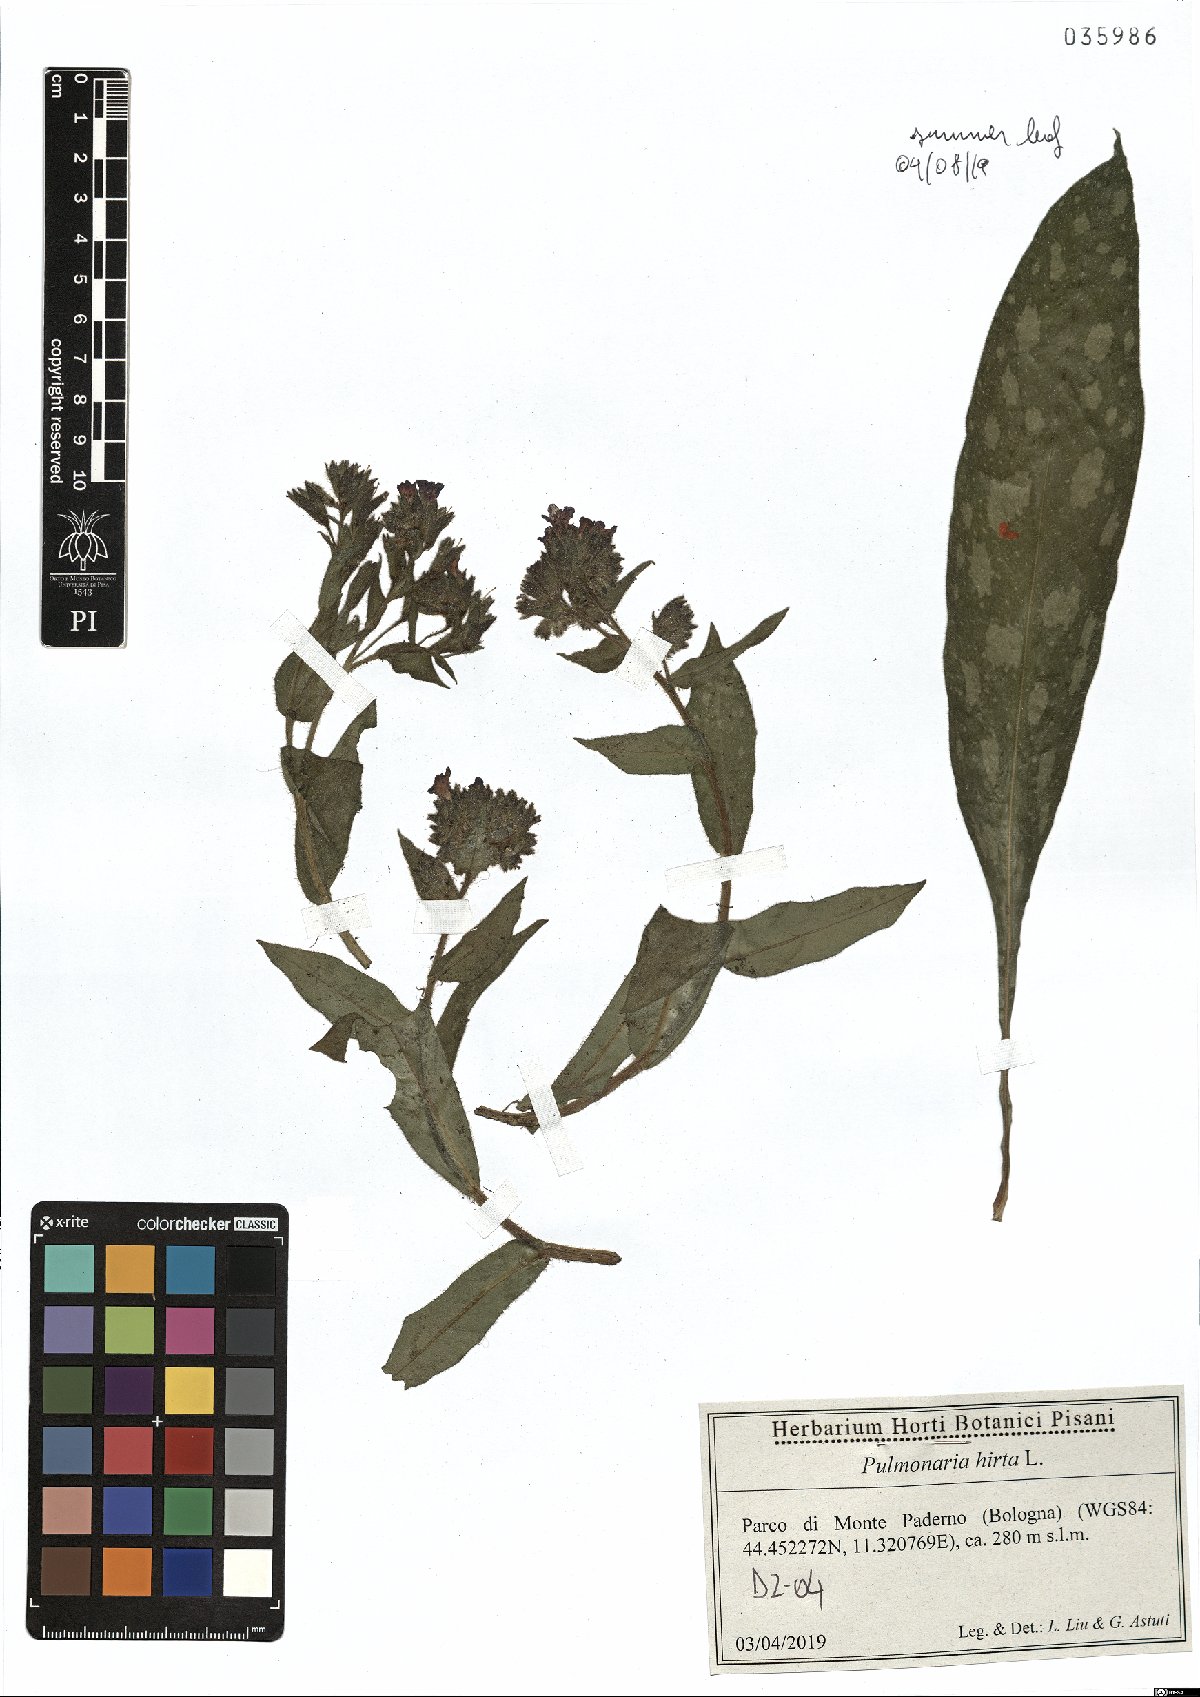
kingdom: Plantae
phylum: Tracheophyta
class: Magnoliopsida
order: Boraginales
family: Boraginaceae
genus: Pulmonaria
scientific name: Pulmonaria hirta
